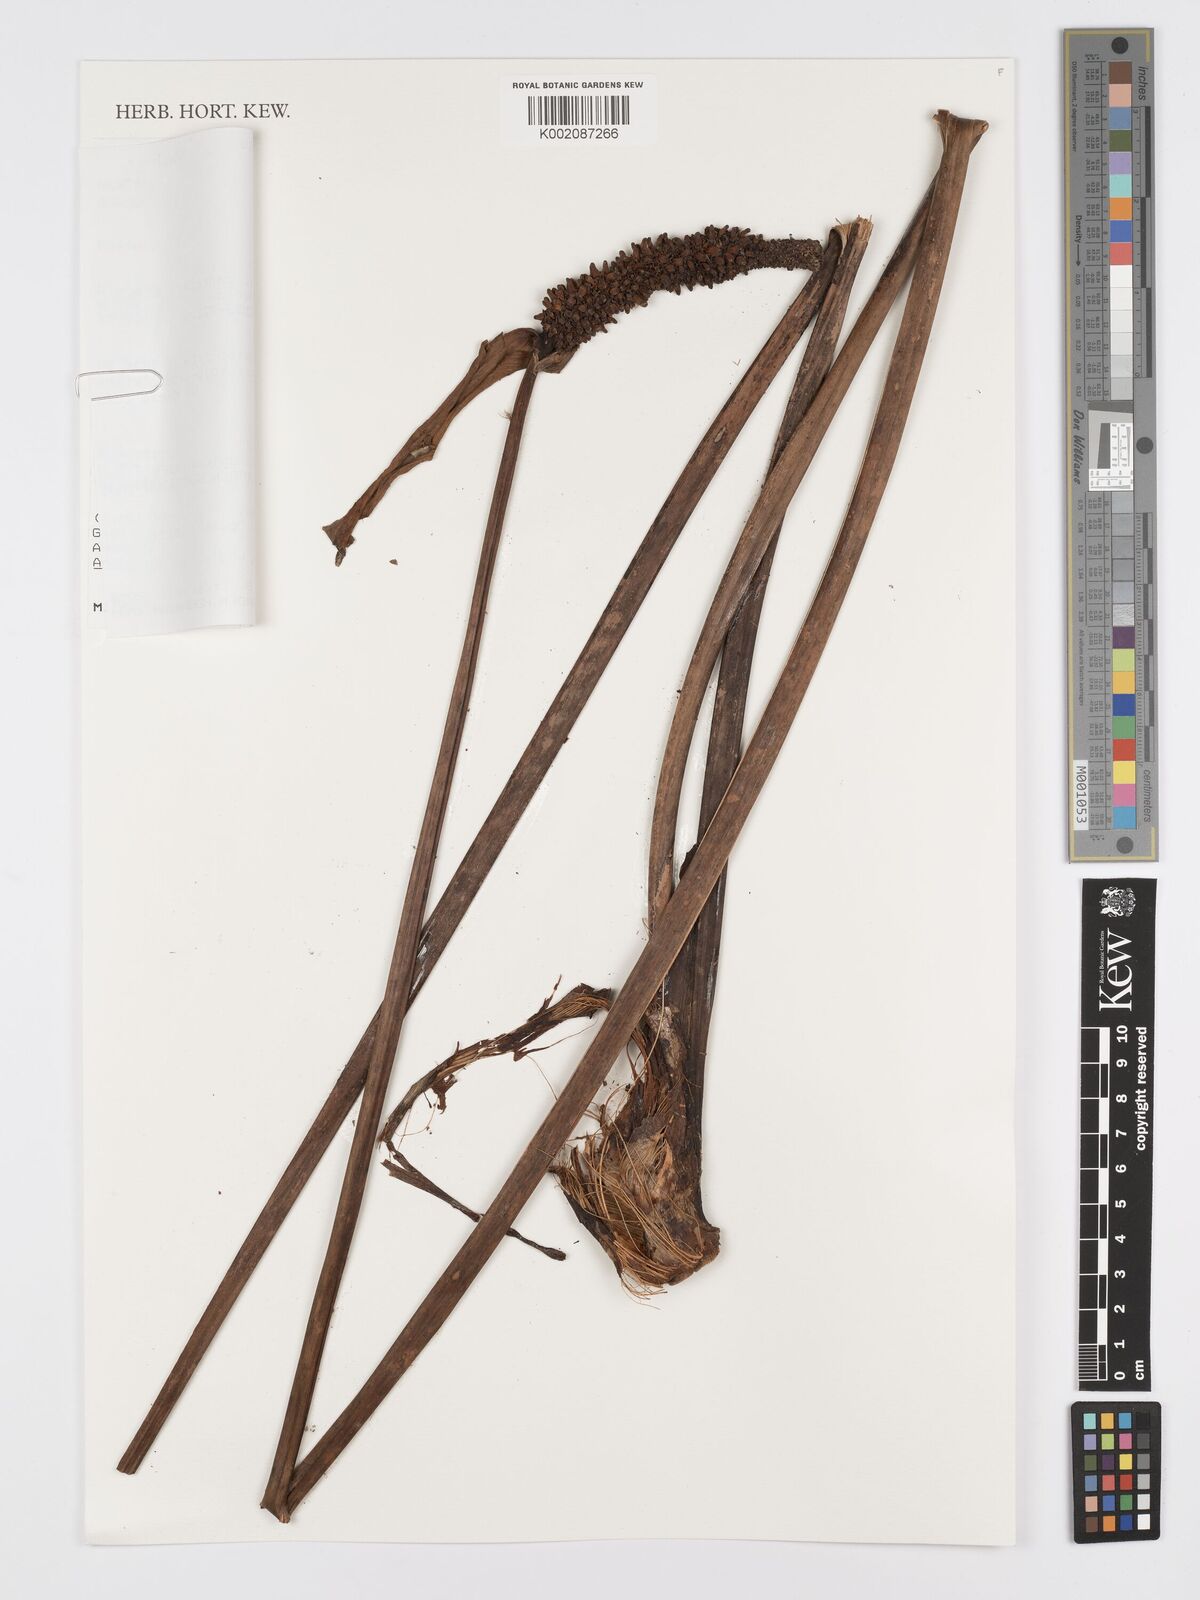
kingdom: Plantae
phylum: Tracheophyta
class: Liliopsida
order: Alismatales
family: Araceae
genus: Anthurium
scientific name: Anthurium weberbaueri
